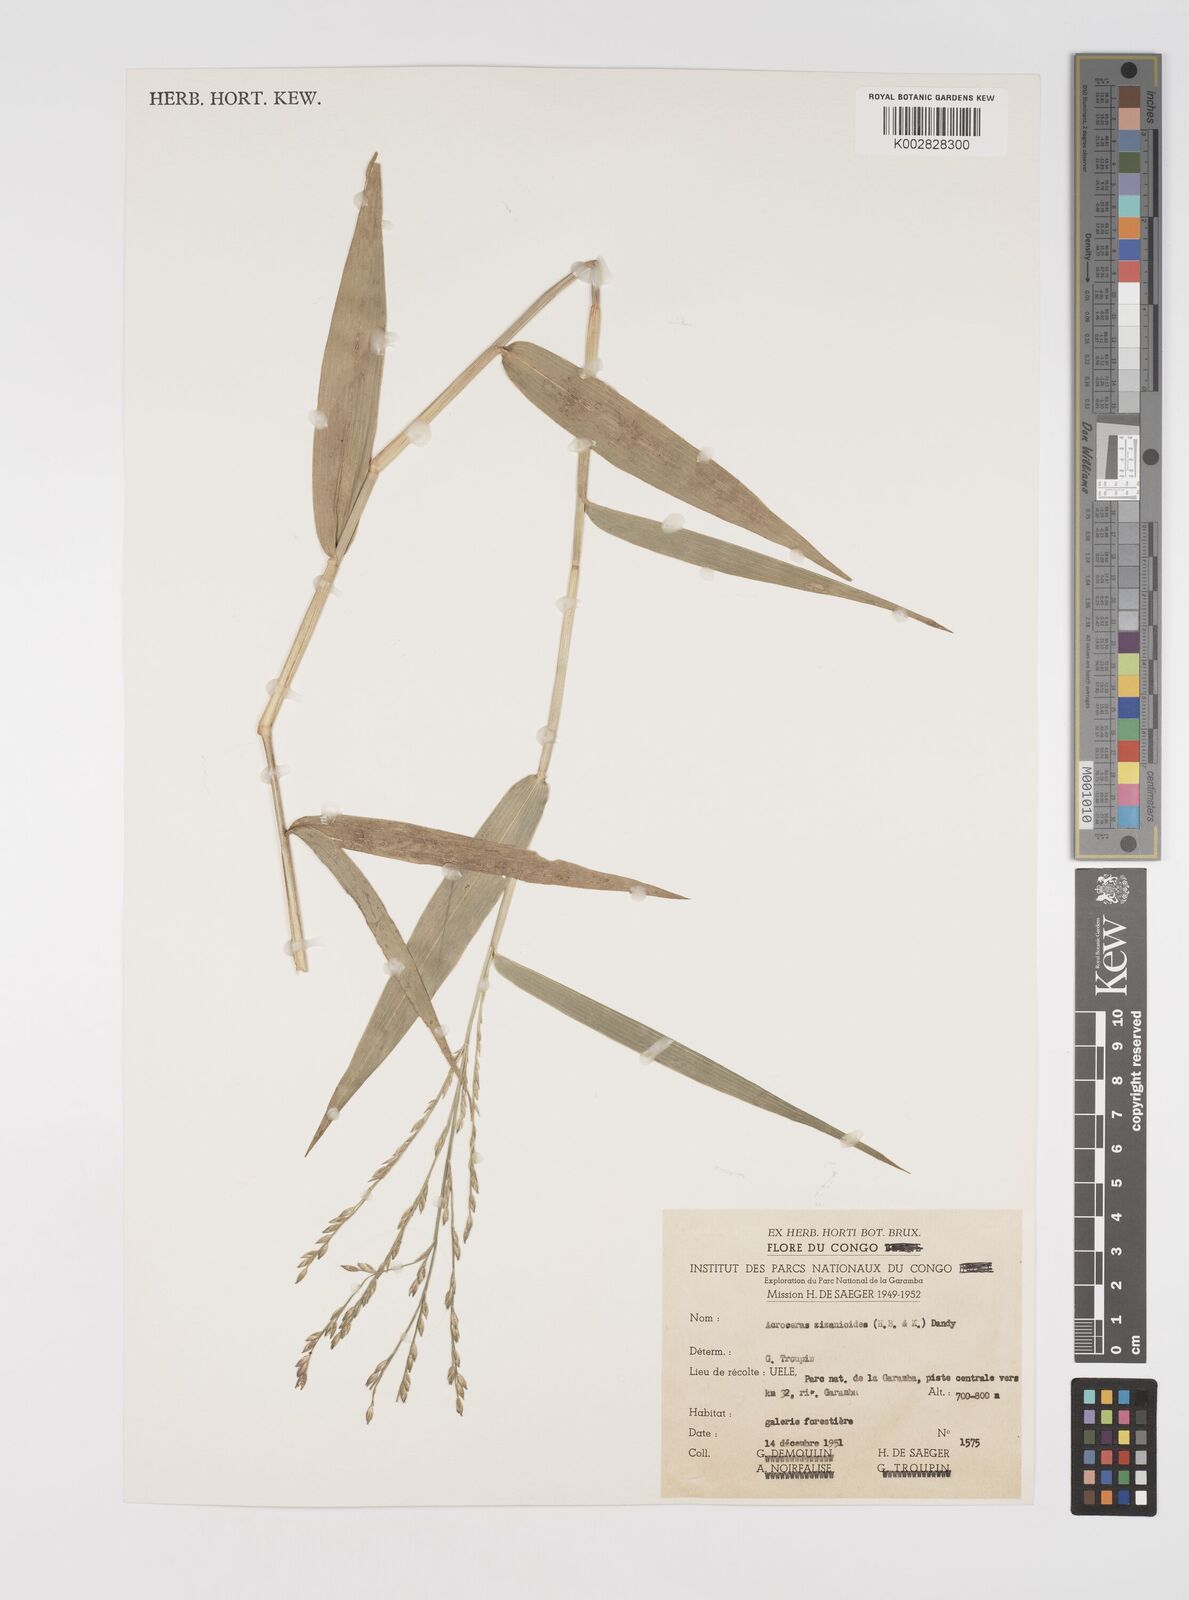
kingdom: Plantae
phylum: Tracheophyta
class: Liliopsida
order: Poales
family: Poaceae
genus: Acroceras
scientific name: Acroceras zizanioides
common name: Oat grass
